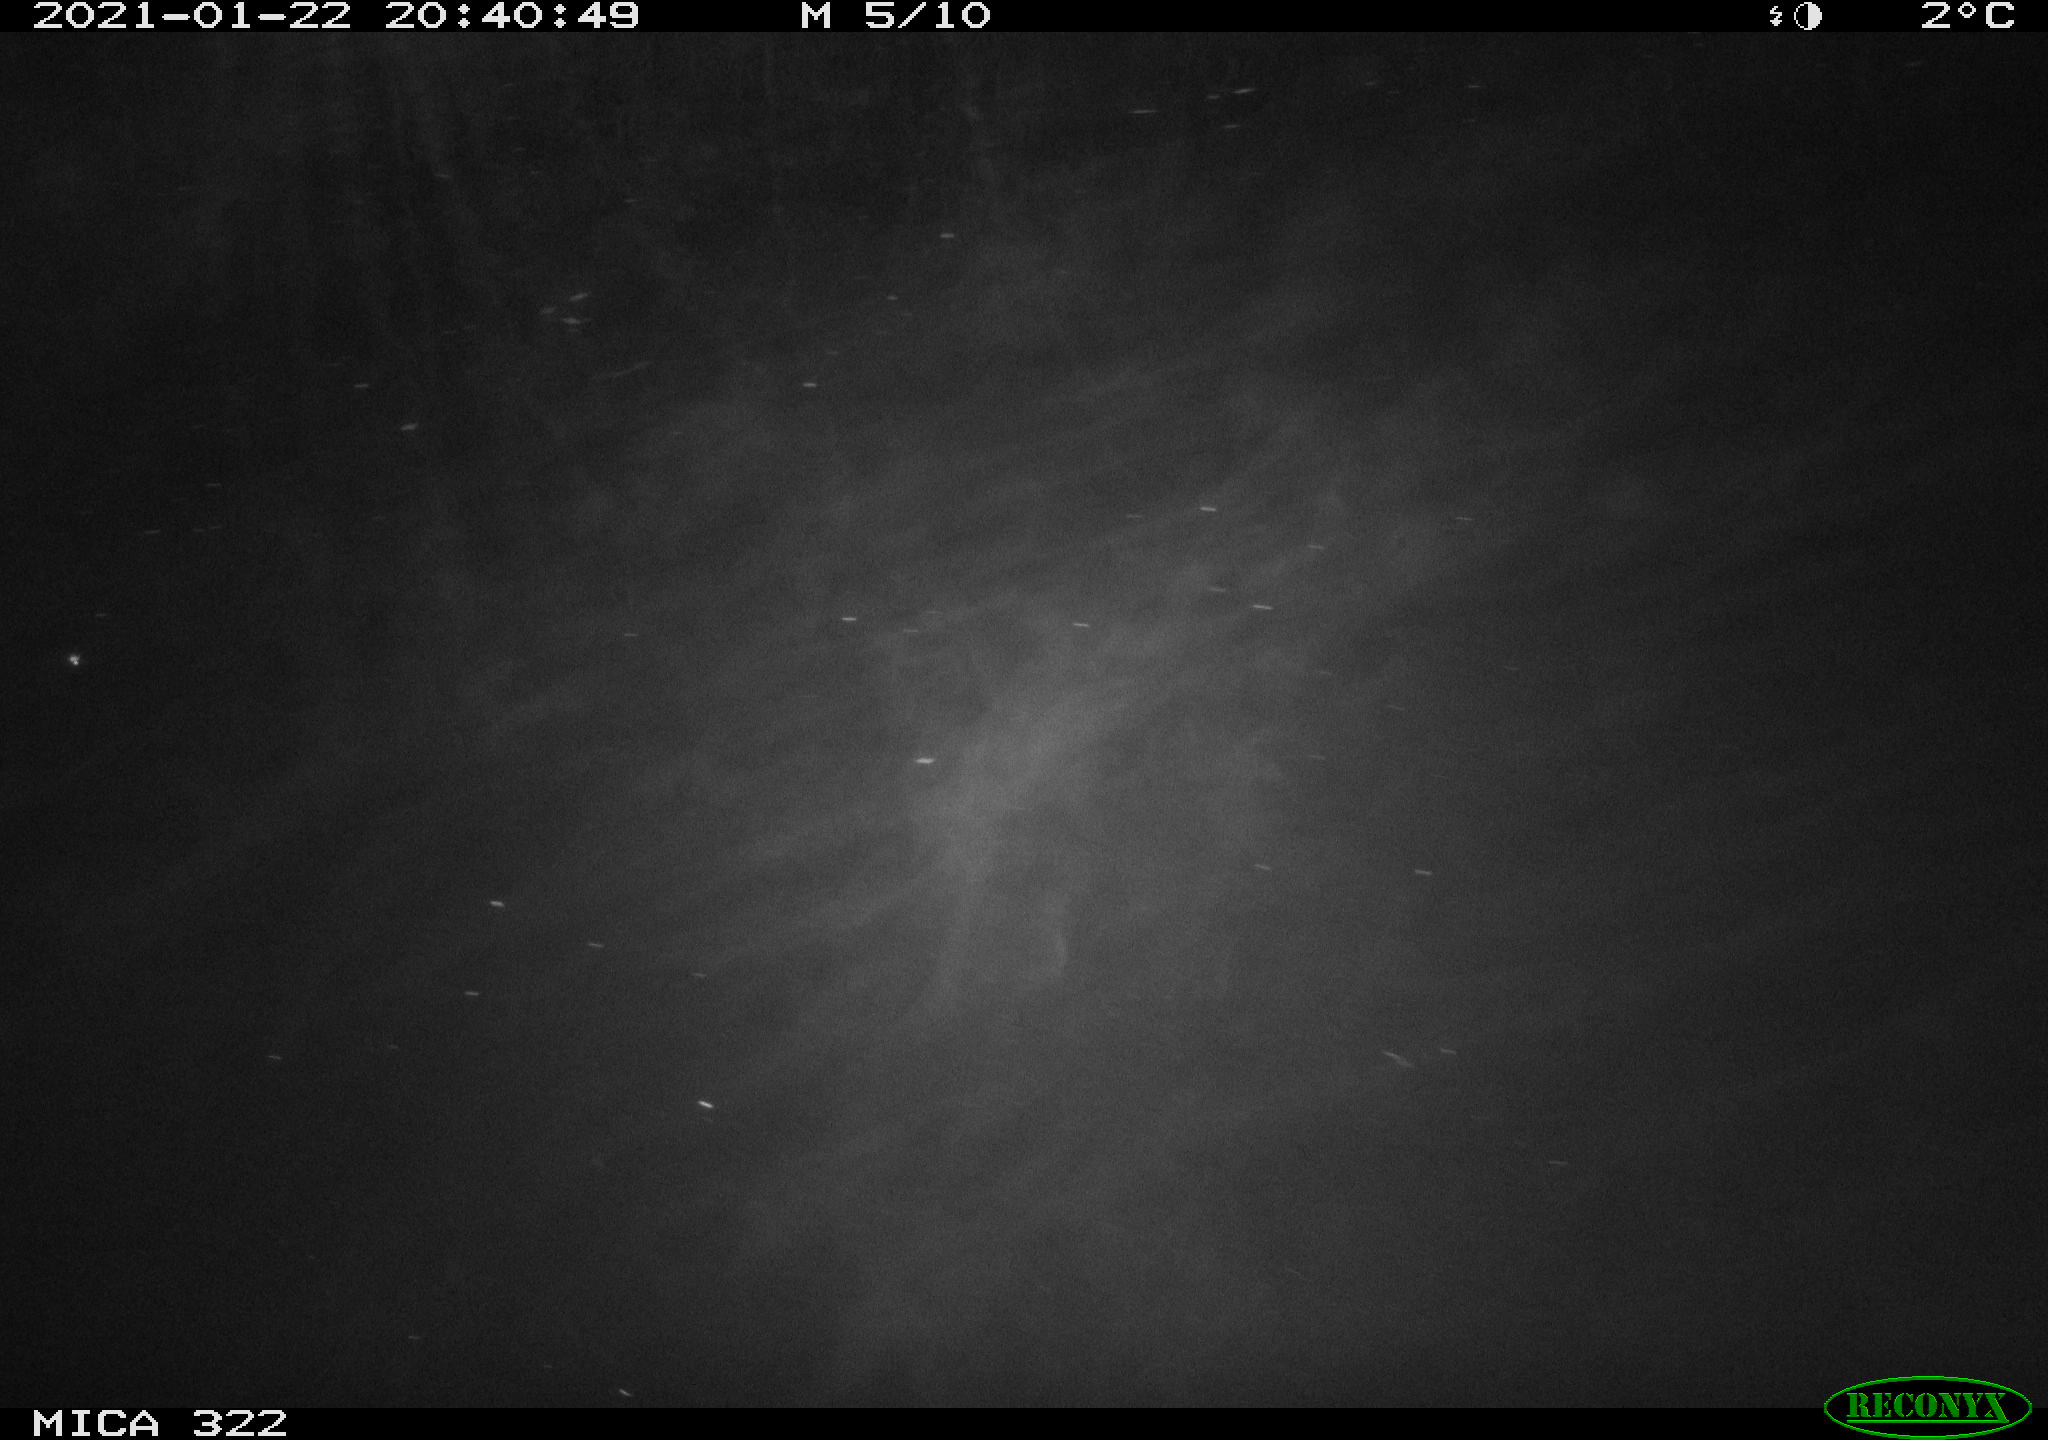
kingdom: Animalia
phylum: Chordata
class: Aves
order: Anseriformes
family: Anatidae
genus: Anas
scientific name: Anas platyrhynchos
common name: Mallard
